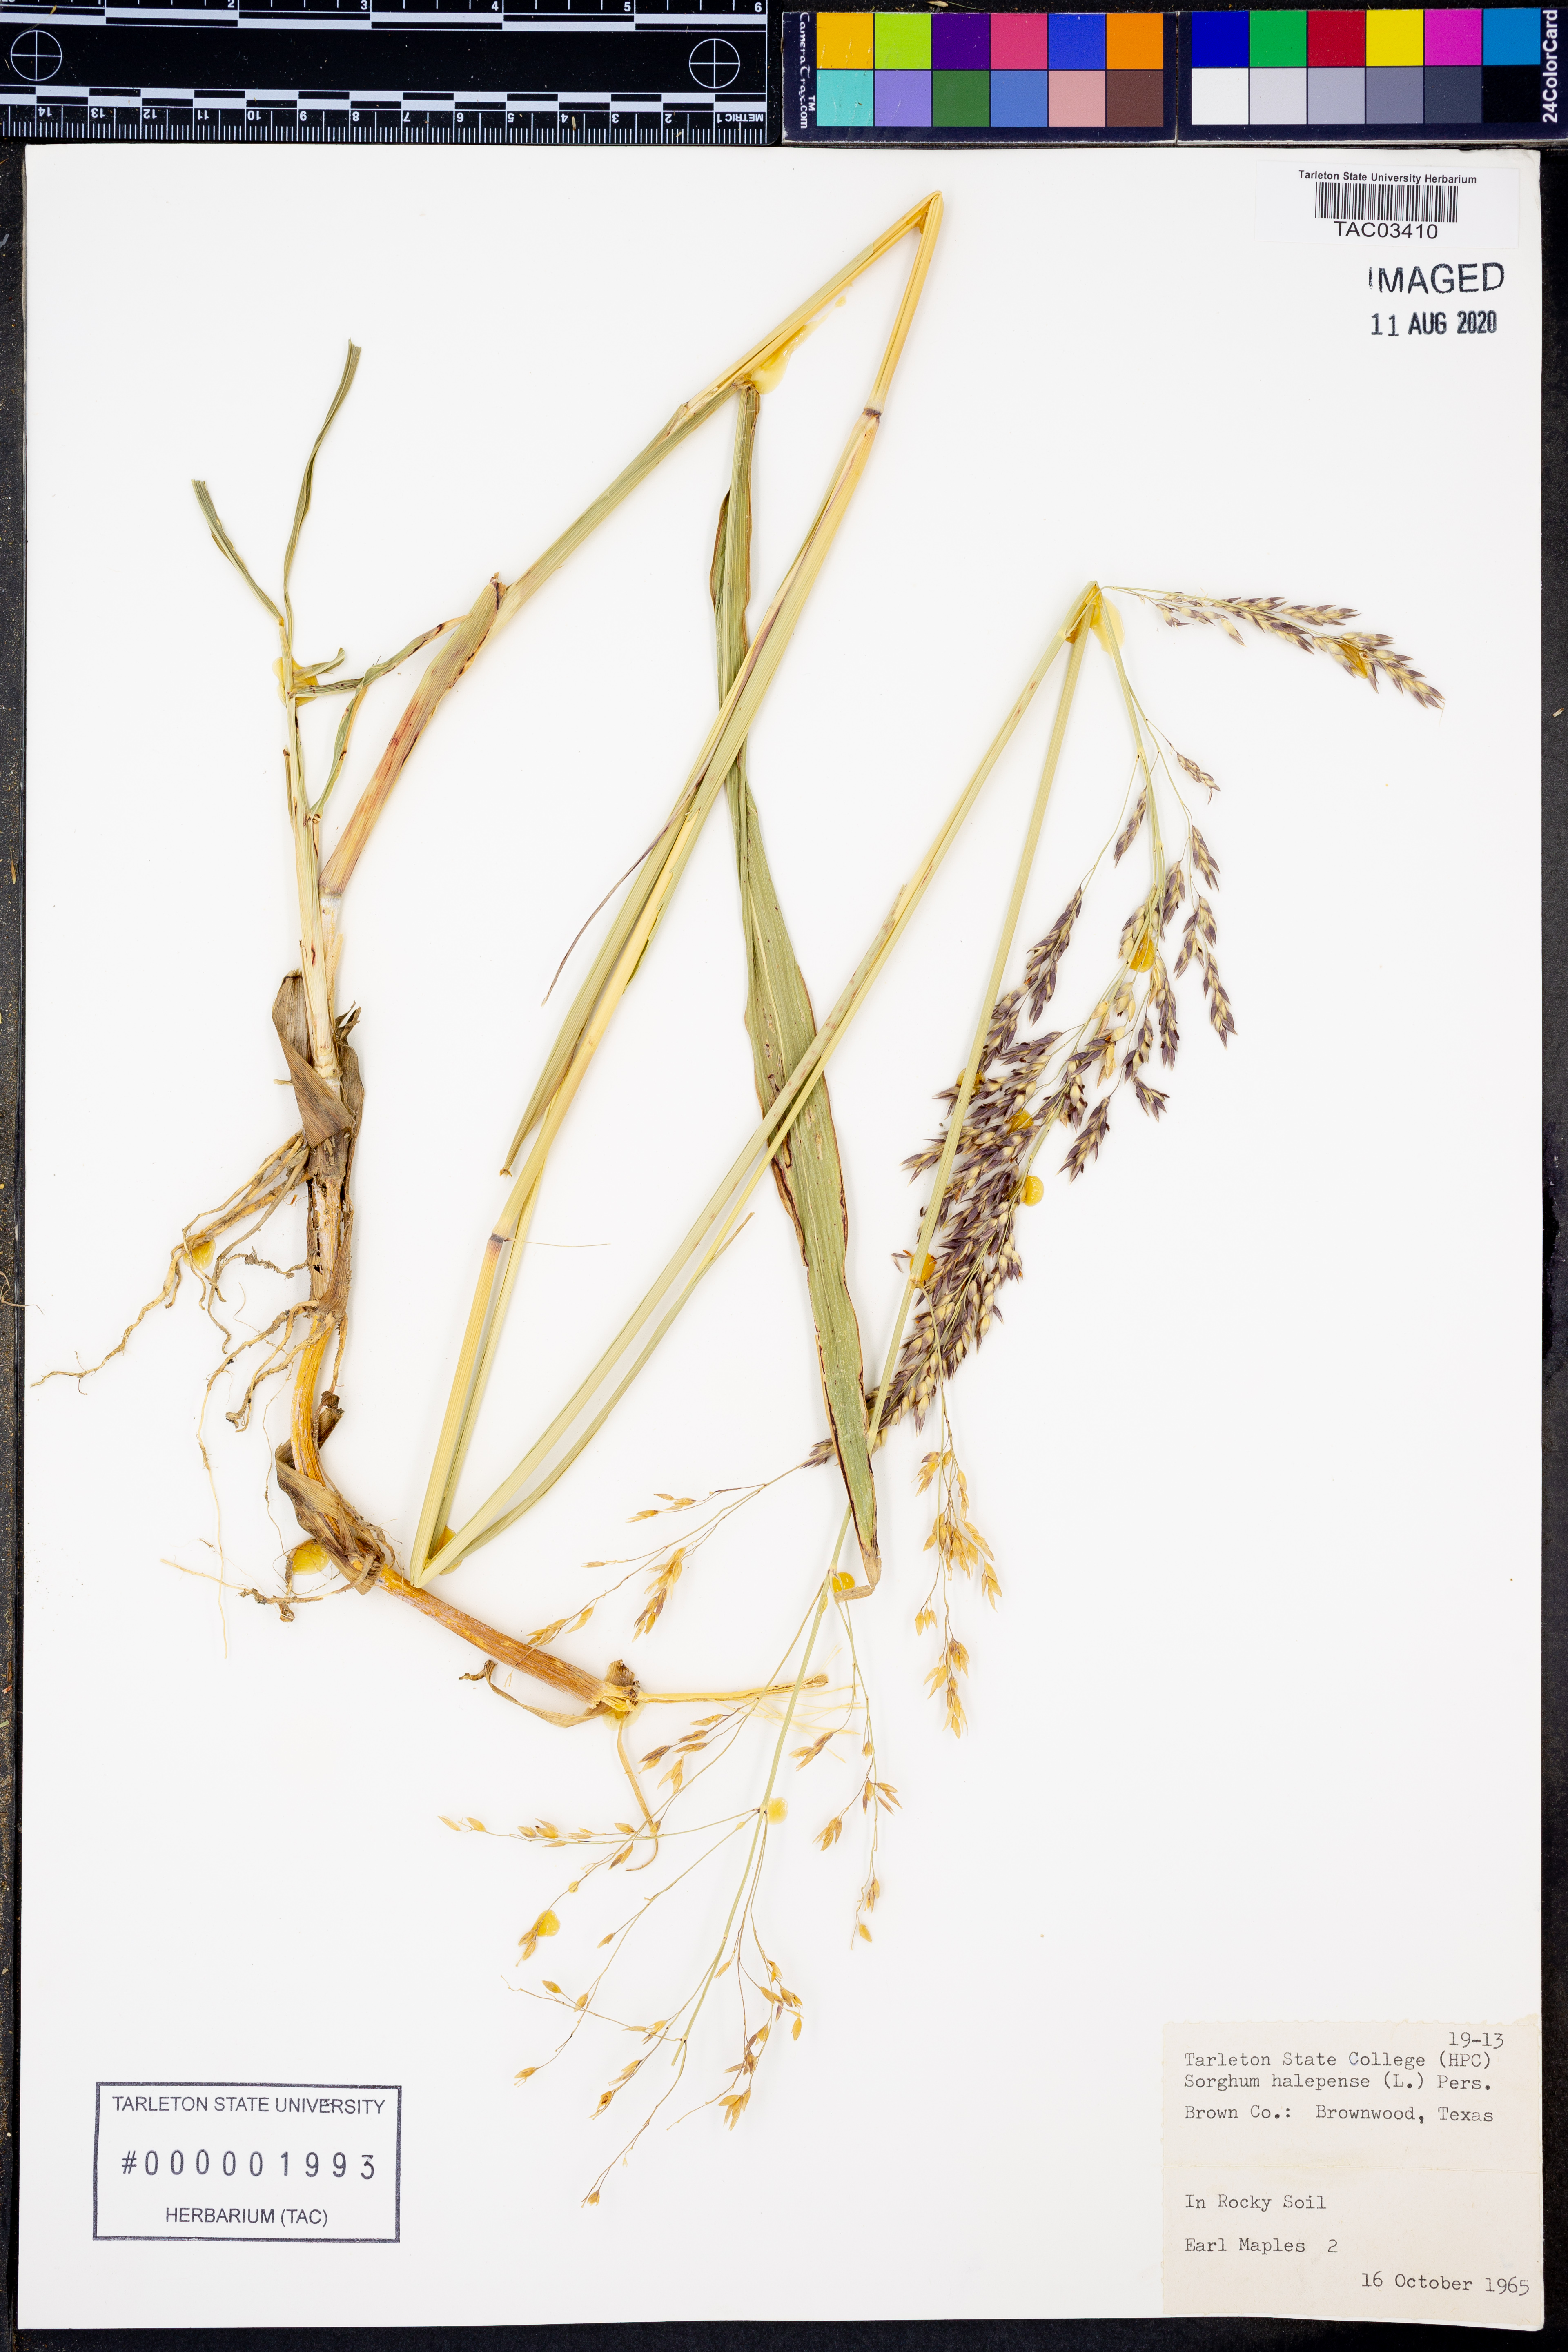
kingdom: Plantae
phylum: Tracheophyta
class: Liliopsida
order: Poales
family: Poaceae
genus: Sorghum
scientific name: Sorghum halepense
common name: Johnson-grass
